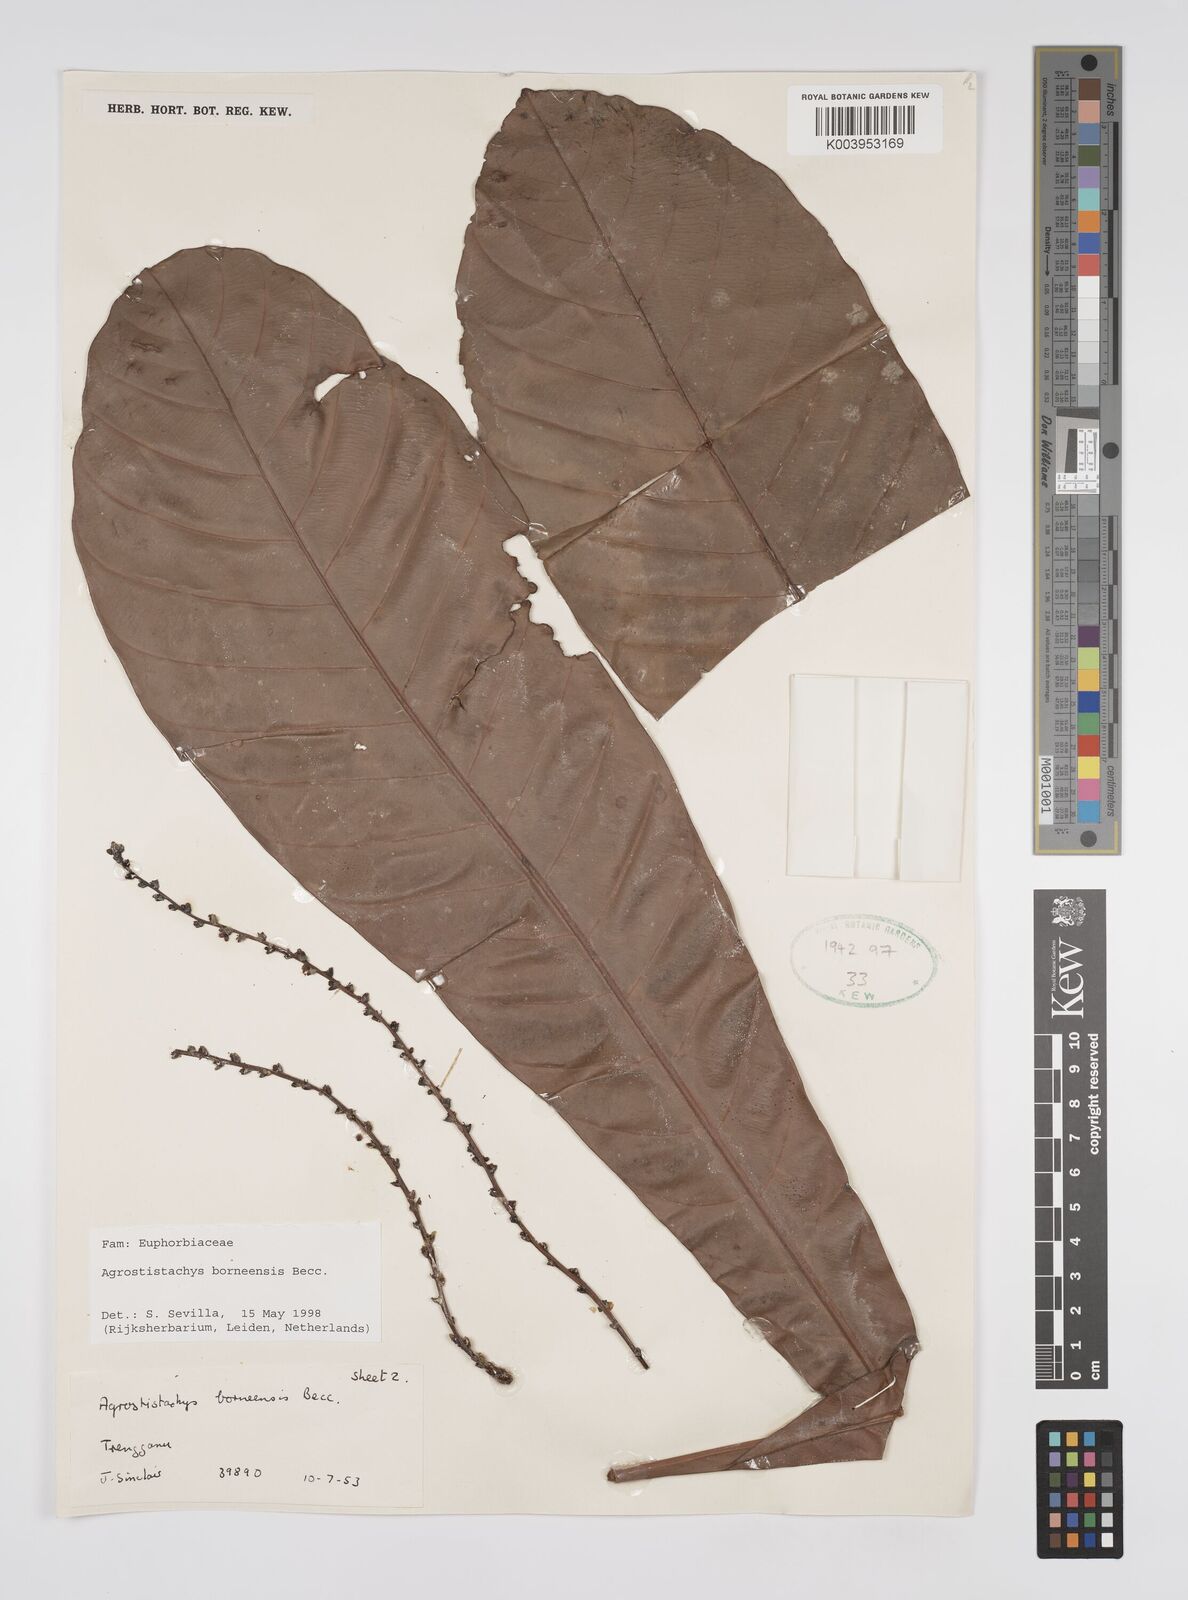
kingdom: Plantae
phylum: Tracheophyta
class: Magnoliopsida
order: Malpighiales
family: Euphorbiaceae
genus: Agrostistachys
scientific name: Agrostistachys borneensis
